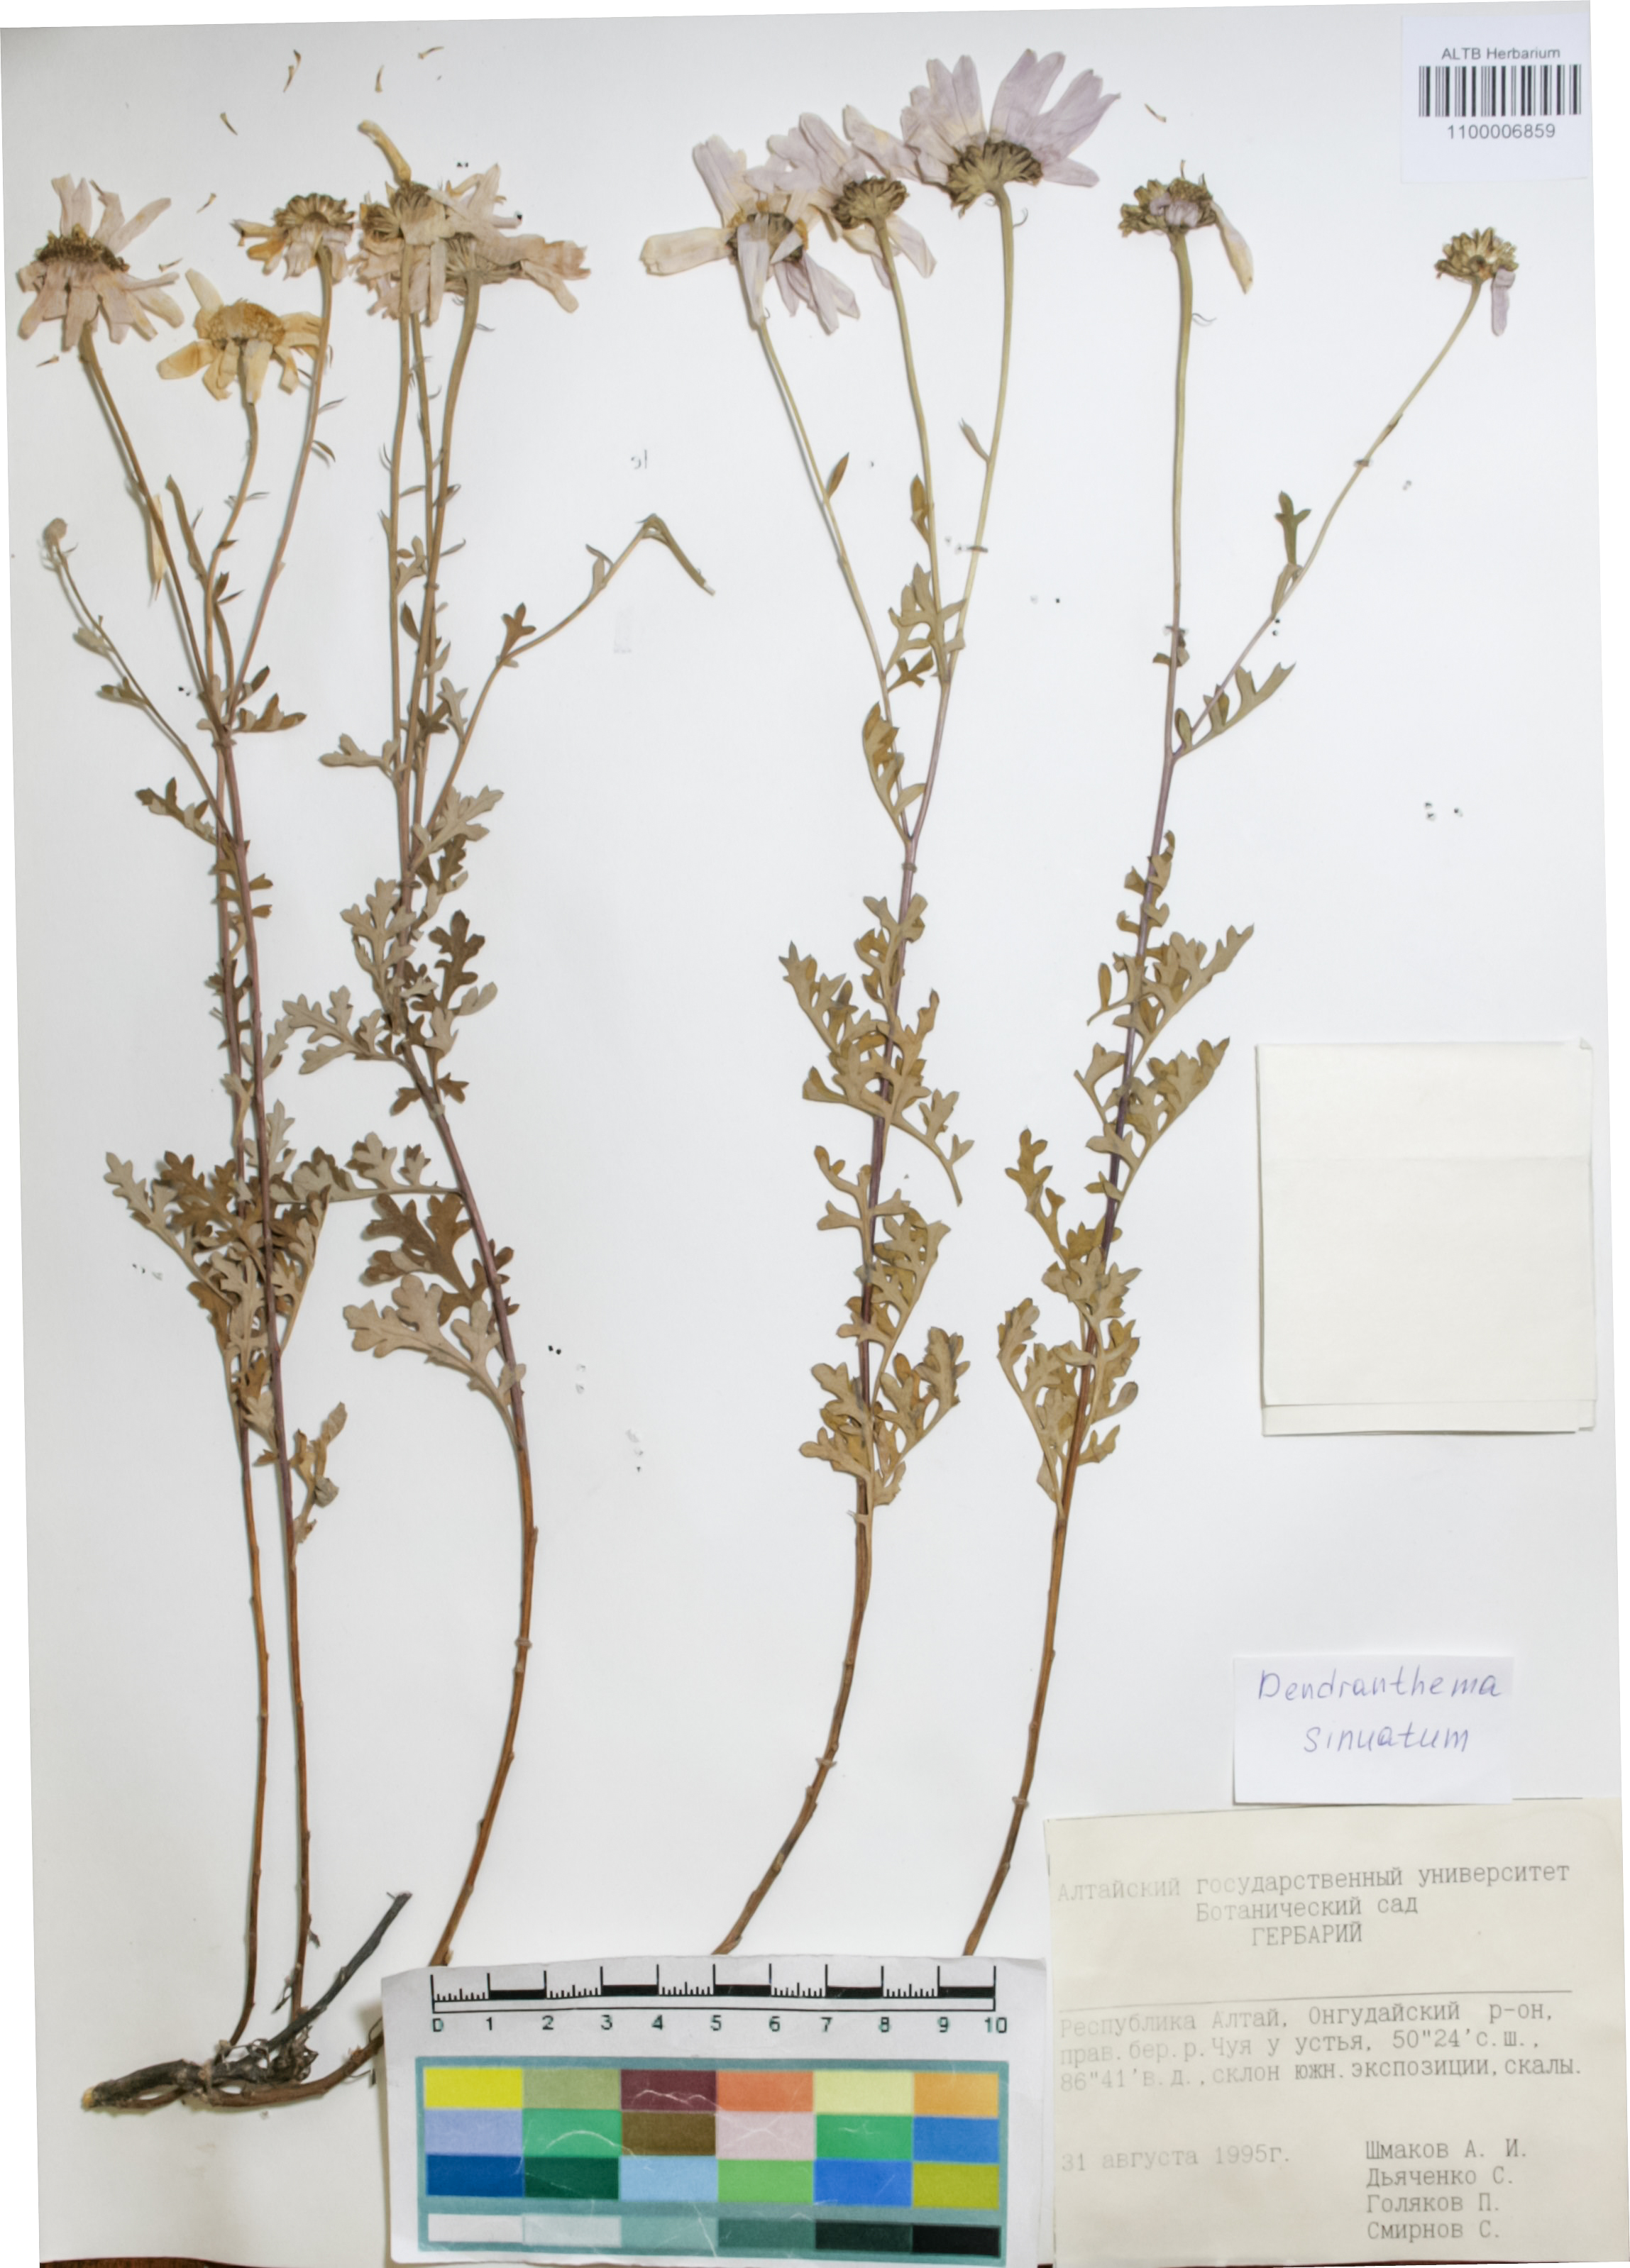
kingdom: Plantae
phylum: Tracheophyta
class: Magnoliopsida
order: Asterales
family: Asteraceae
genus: Chrysanthemum
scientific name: Chrysanthemum sinuatum
